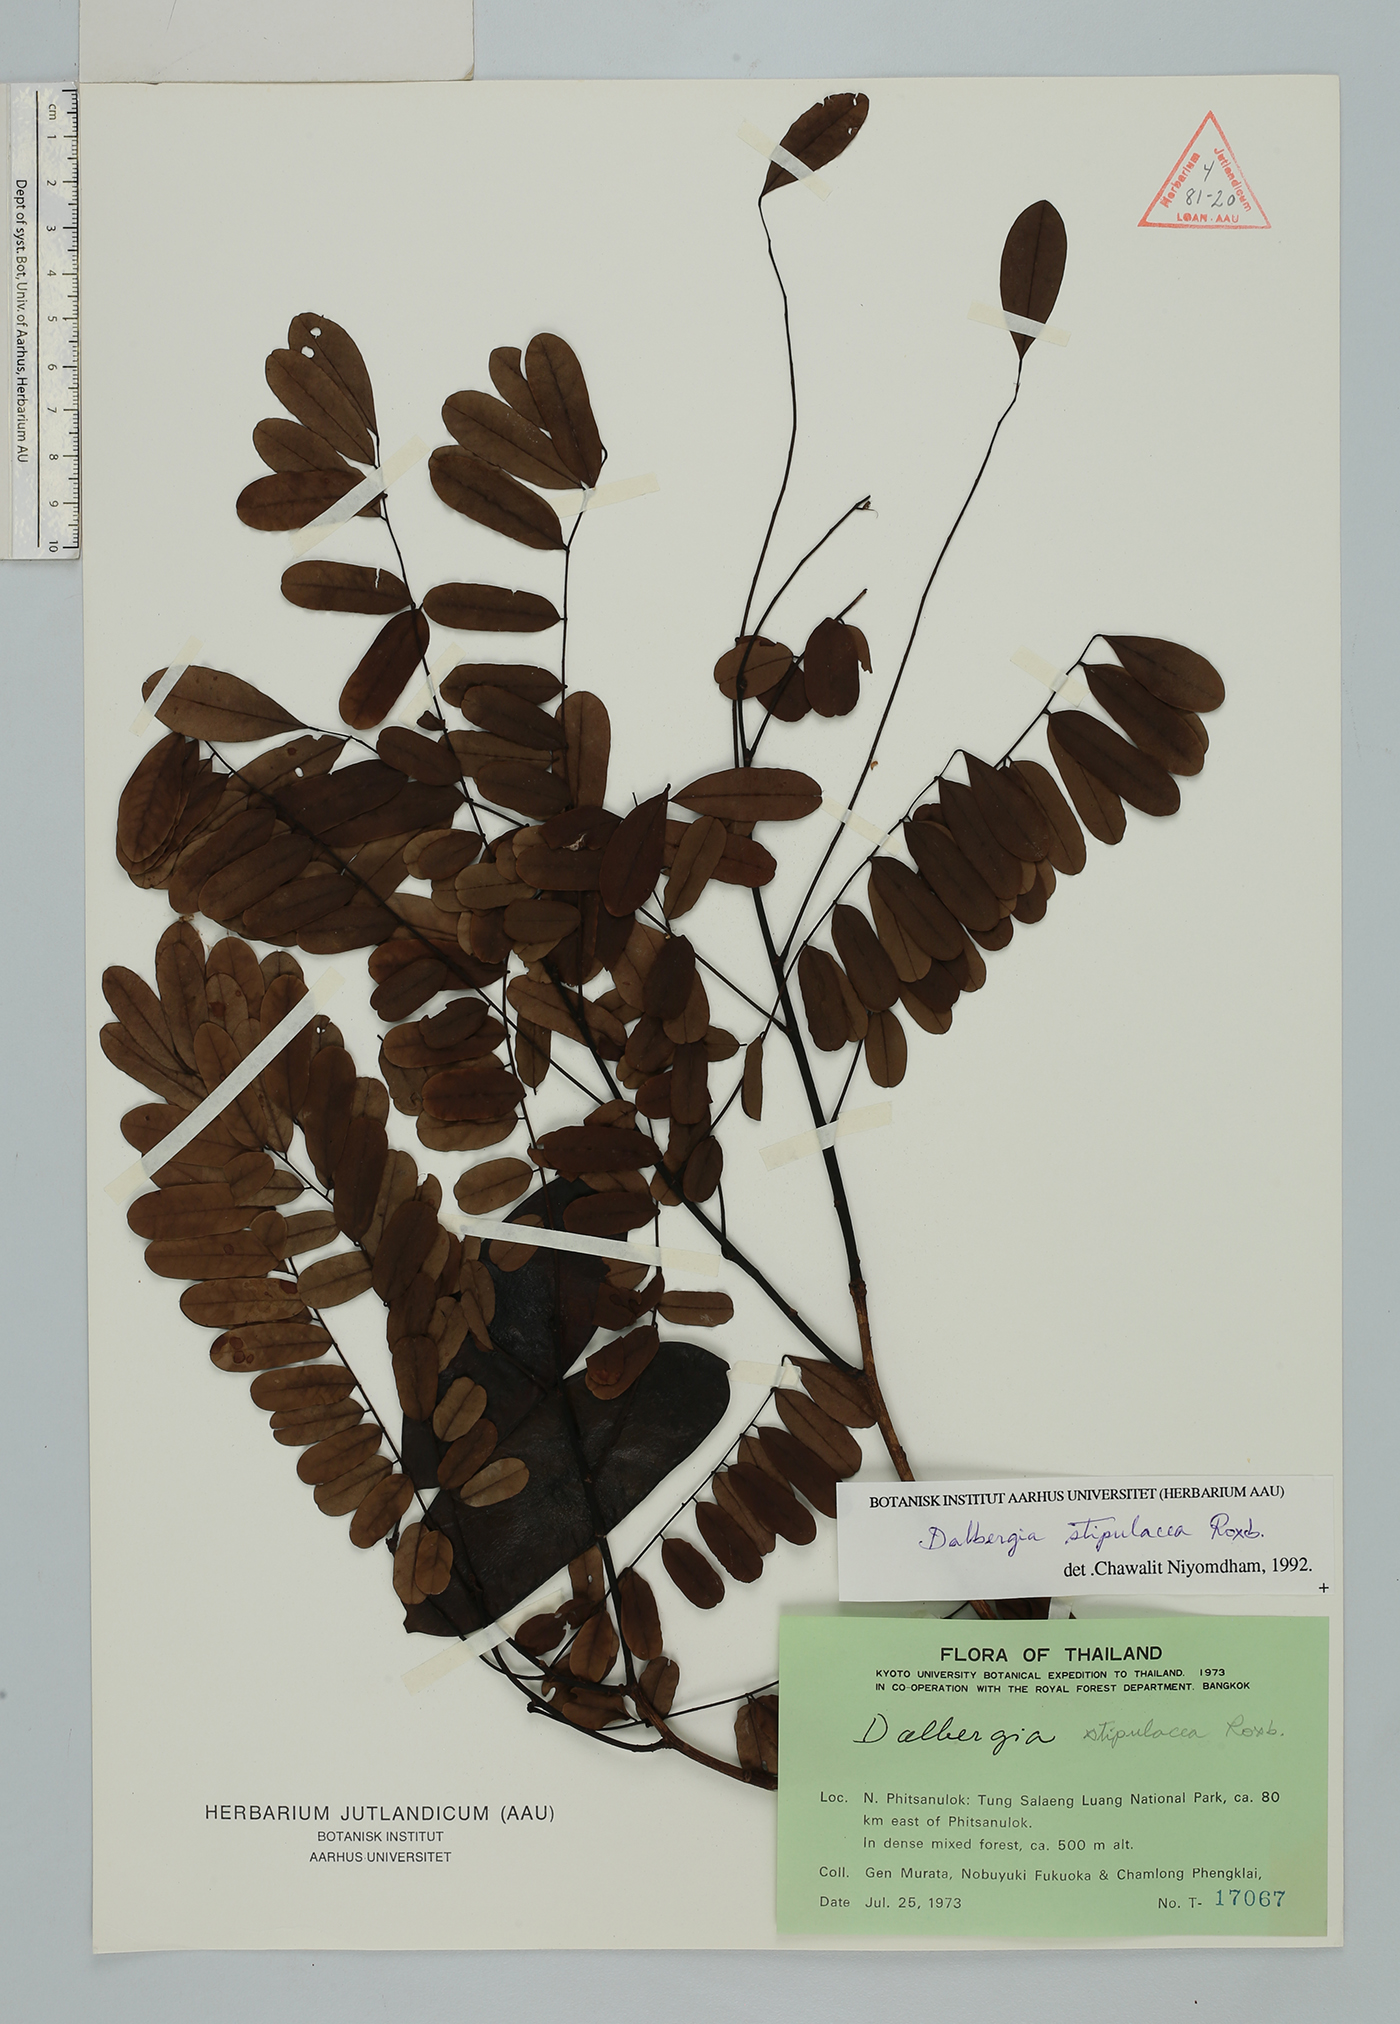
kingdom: Plantae
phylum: Tracheophyta
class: Magnoliopsida
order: Fabales
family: Fabaceae
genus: Dalbergia
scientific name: Dalbergia stipulacea
